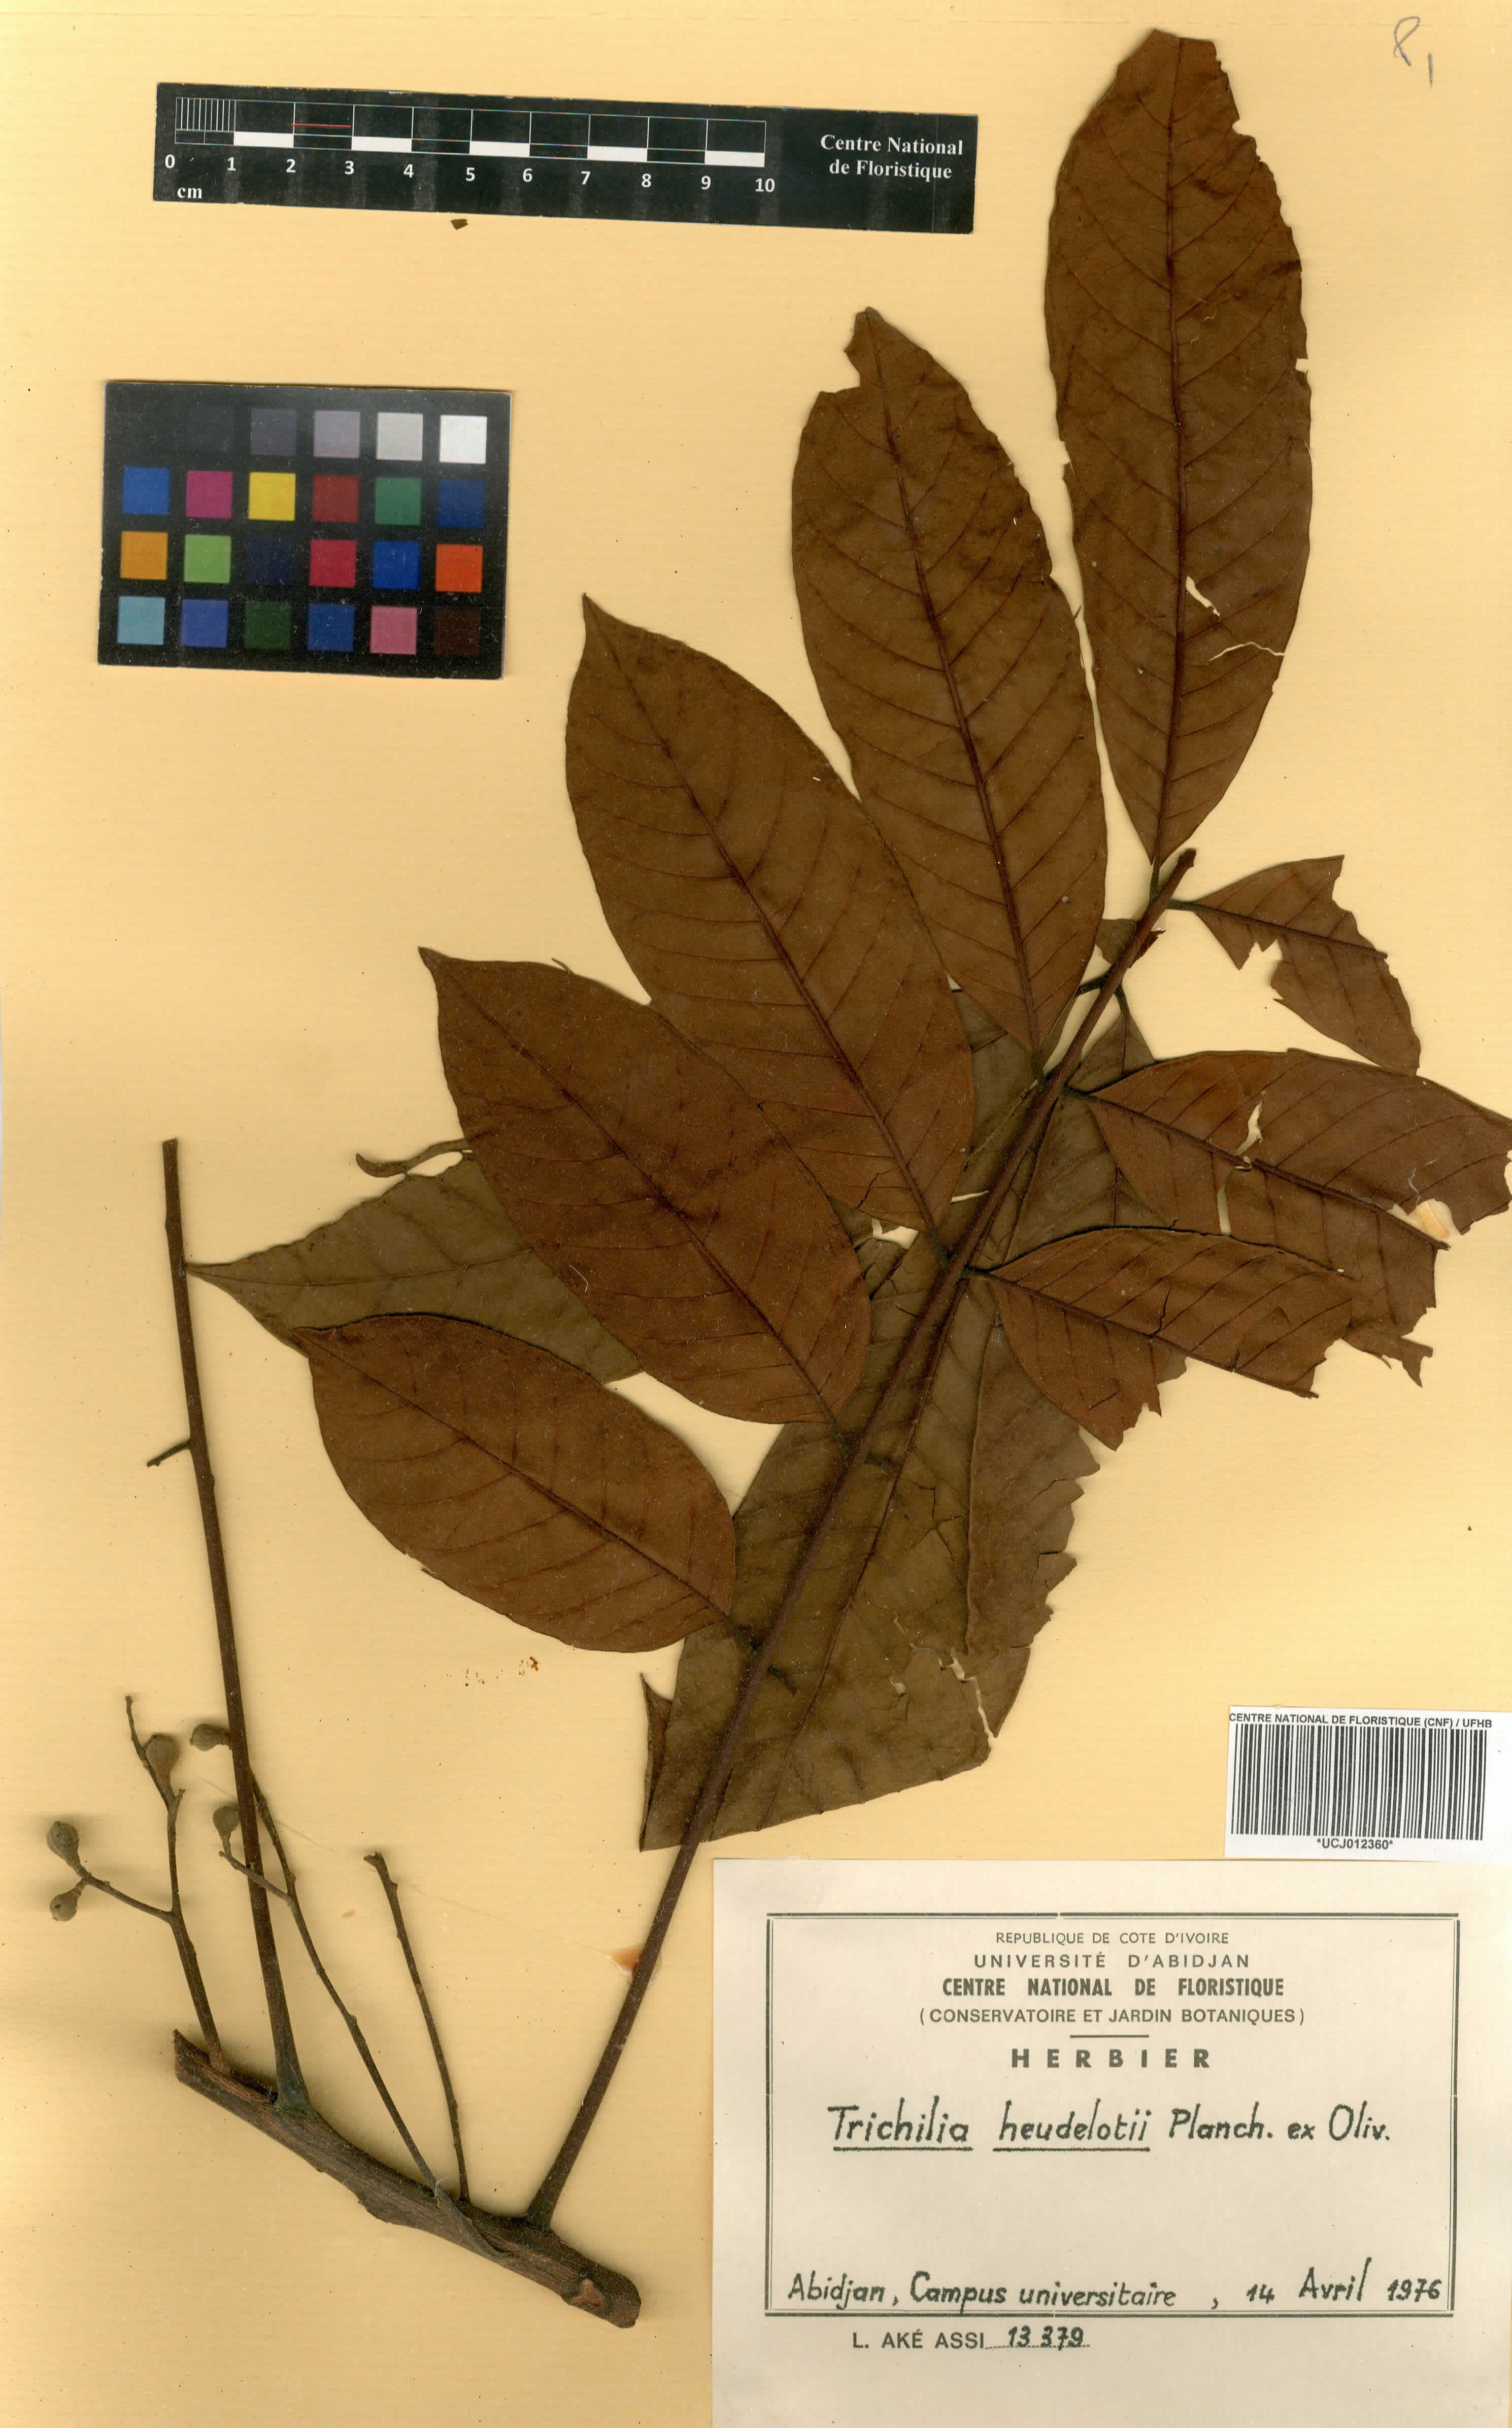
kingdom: Plantae
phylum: Tracheophyta
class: Magnoliopsida
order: Sapindales
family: Meliaceae
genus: Trichilia
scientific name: Trichilia monadelpha
